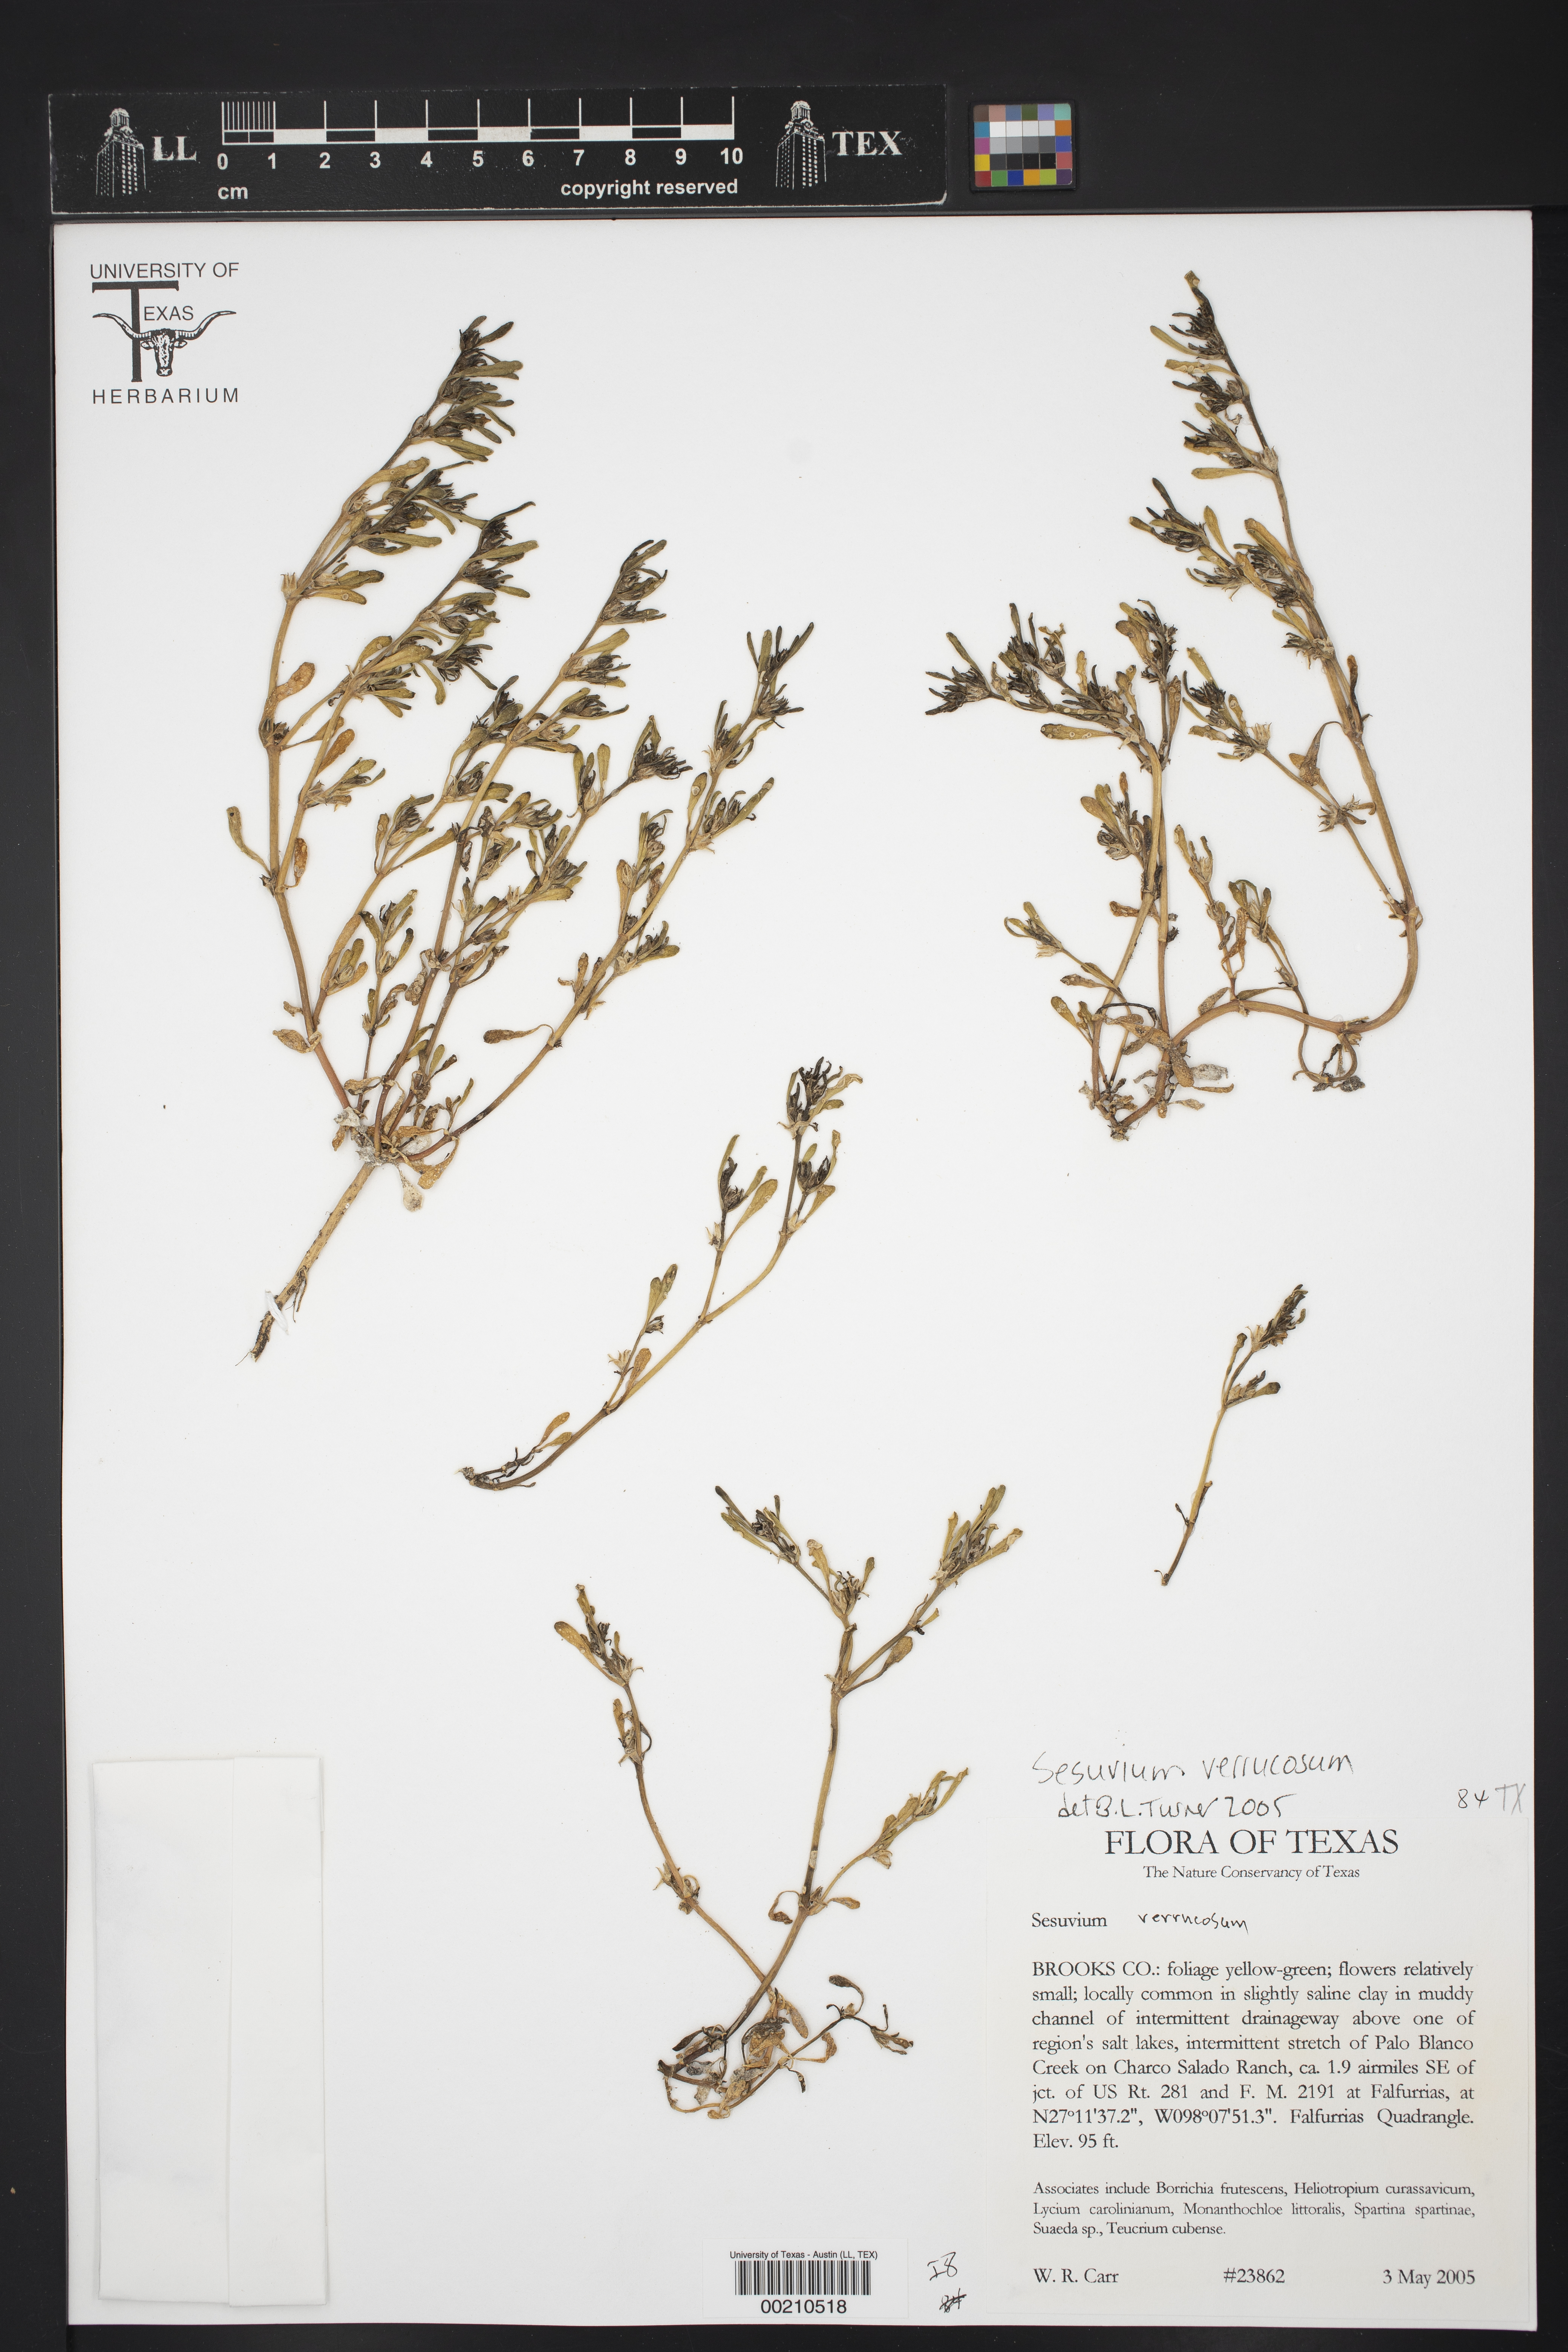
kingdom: Plantae
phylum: Tracheophyta
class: Magnoliopsida
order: Caryophyllales
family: Aizoaceae
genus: Sesuvium
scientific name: Sesuvium revolutifolium
